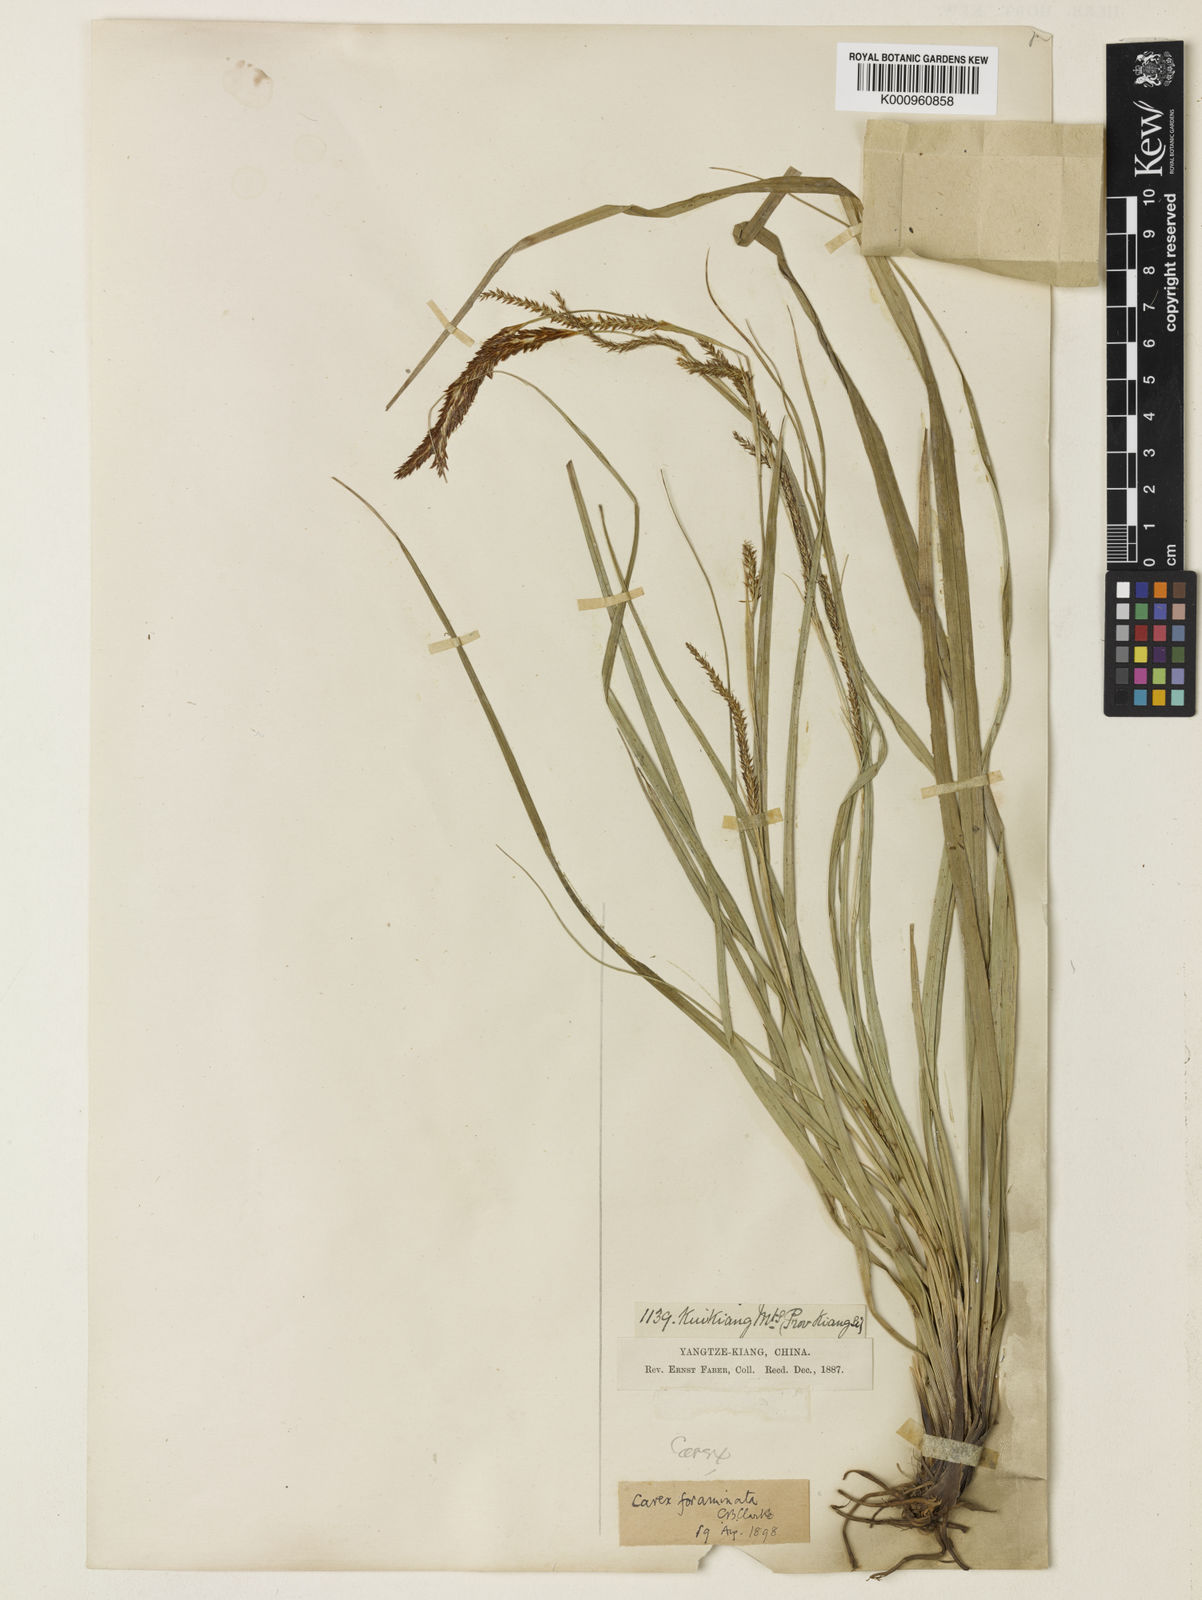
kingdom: Plantae
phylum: Tracheophyta
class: Liliopsida
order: Poales
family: Cyperaceae
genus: Carex
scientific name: Carex foraminata
